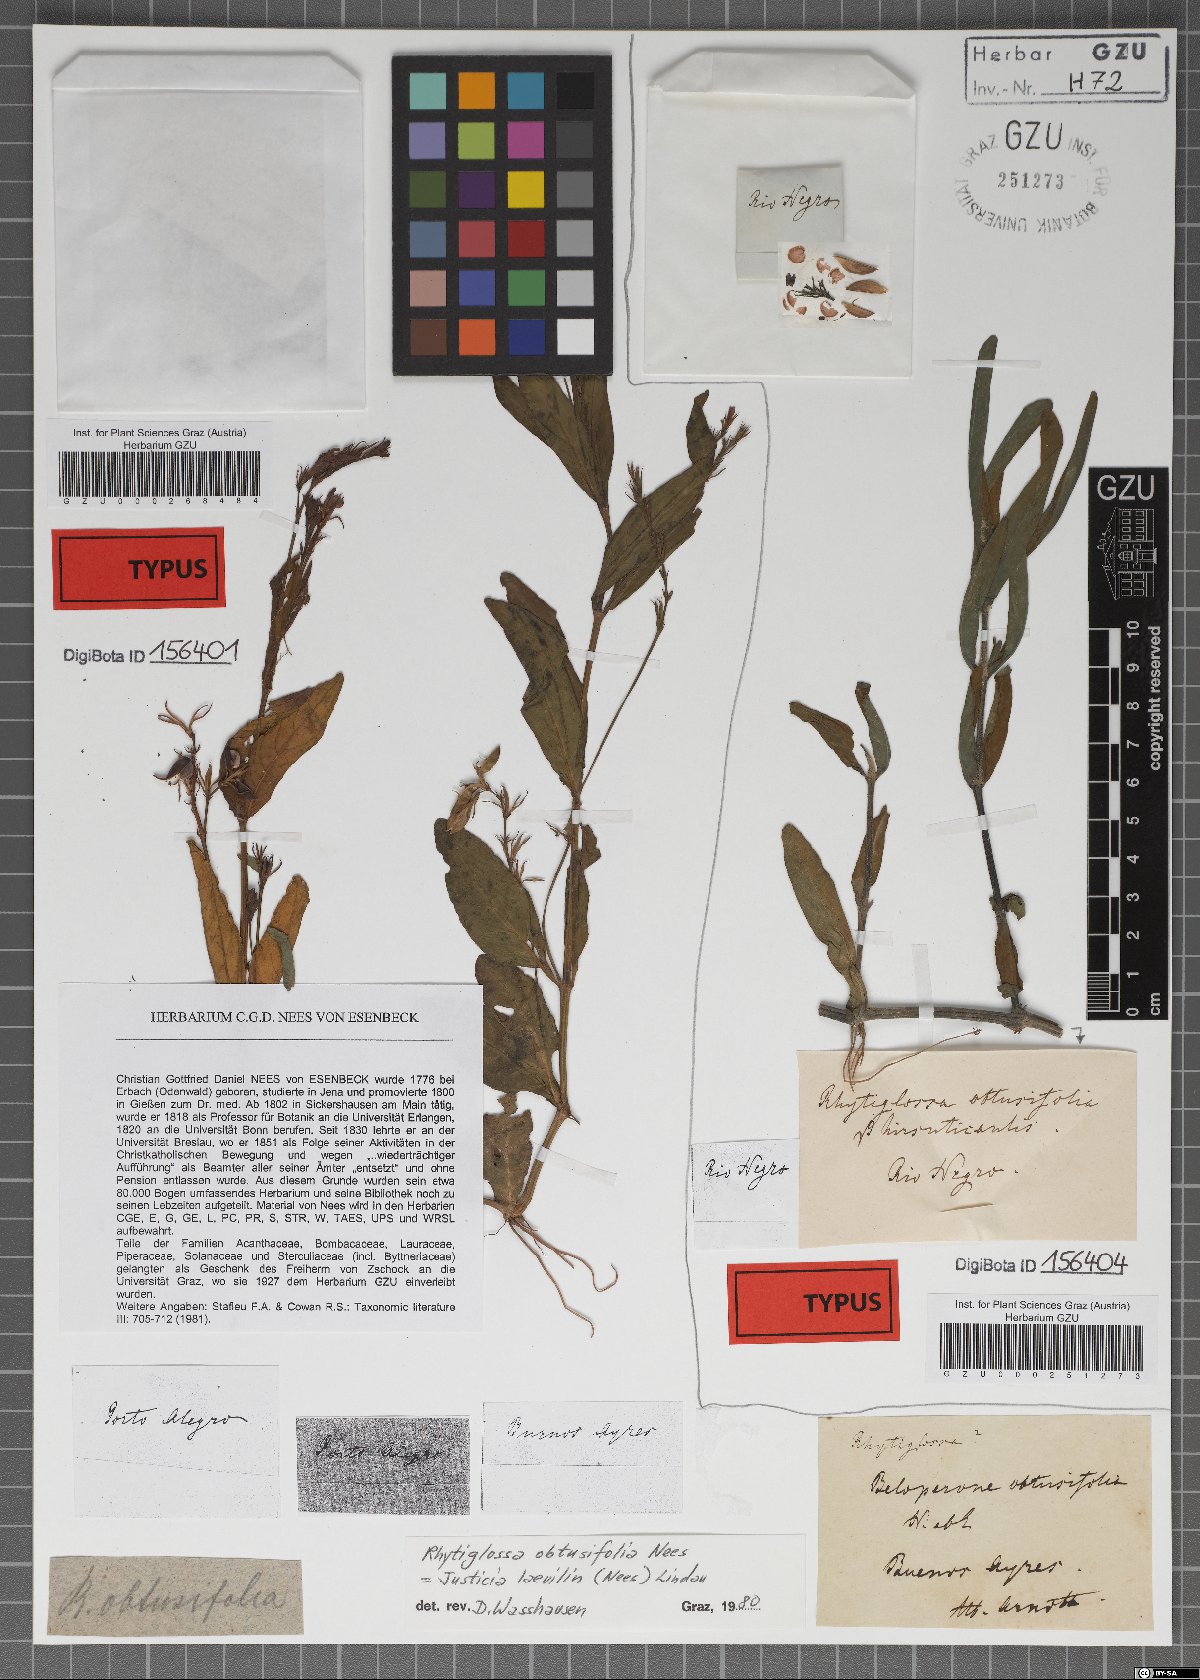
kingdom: Plantae
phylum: Tracheophyta
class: Magnoliopsida
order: Lamiales
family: Acanthaceae
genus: Dianthera
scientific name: Dianthera laevilinguis
